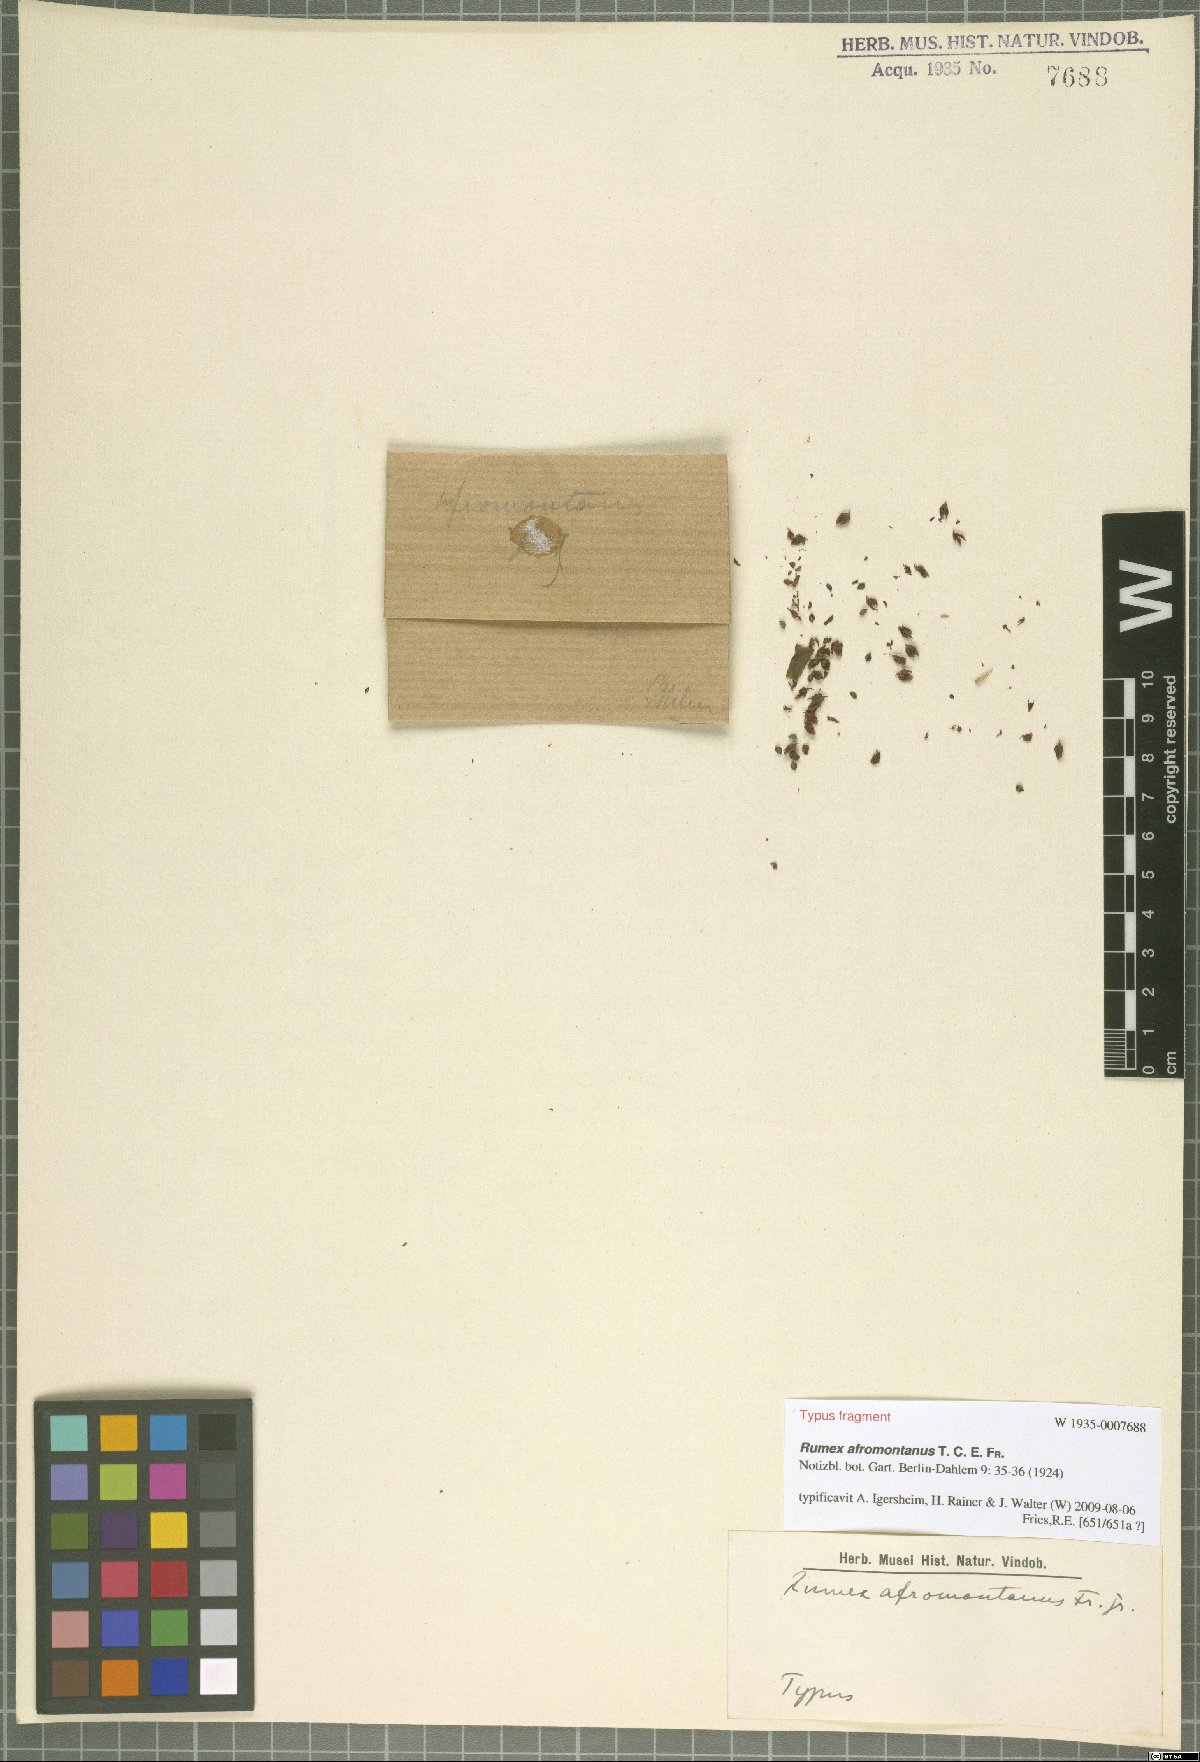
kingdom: Plantae
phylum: Tracheophyta
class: Magnoliopsida
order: Caryophyllales
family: Polygonaceae
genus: Rumex
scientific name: Rumex ruwenzoriensis
